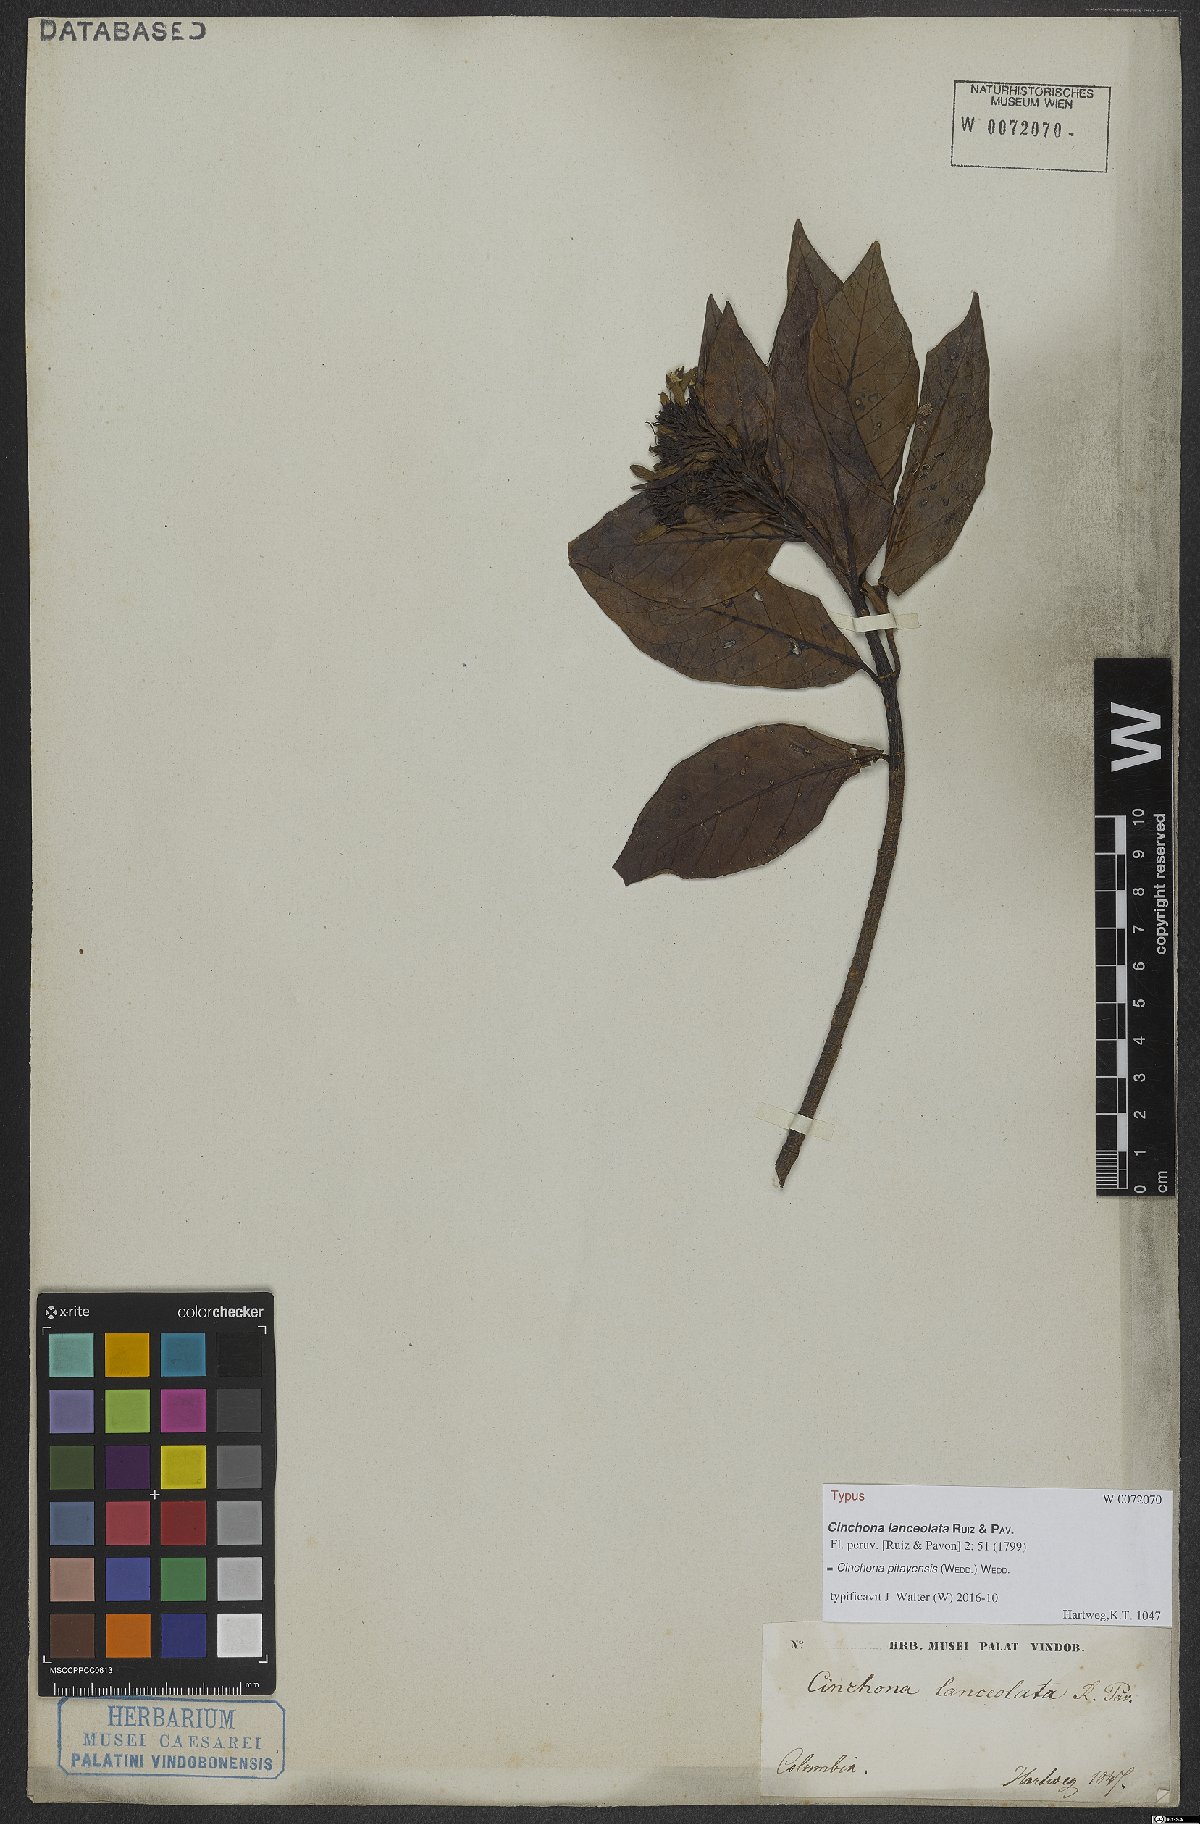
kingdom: Plantae
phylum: Tracheophyta
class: Magnoliopsida
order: Gentianales
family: Rubiaceae
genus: Cinchona
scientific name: Cinchona pitayensis
